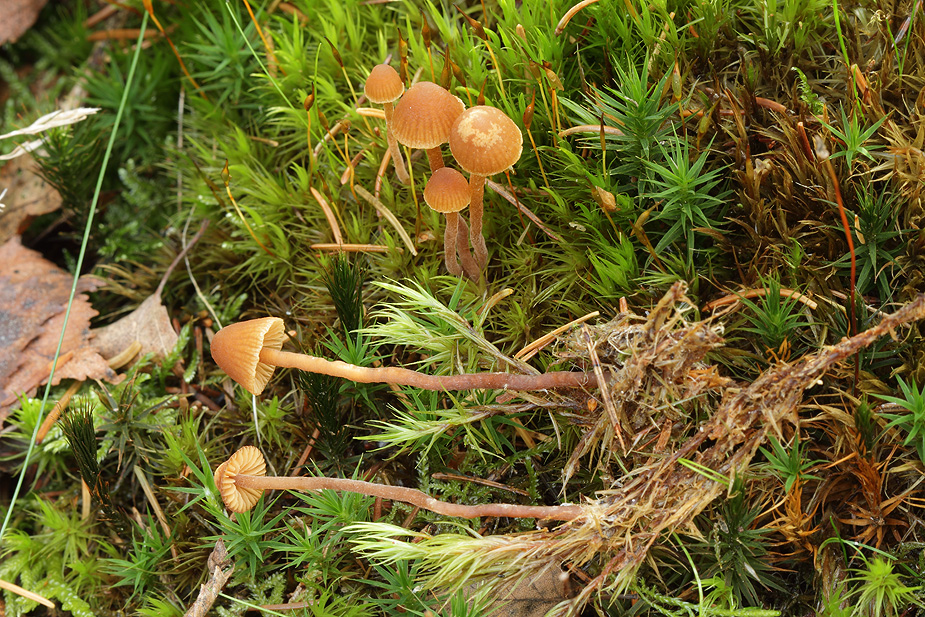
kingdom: Fungi
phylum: Basidiomycota
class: Agaricomycetes
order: Agaricales
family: Hymenogastraceae
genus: Galerina
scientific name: Galerina atkinsoniana
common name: Hairy bell
